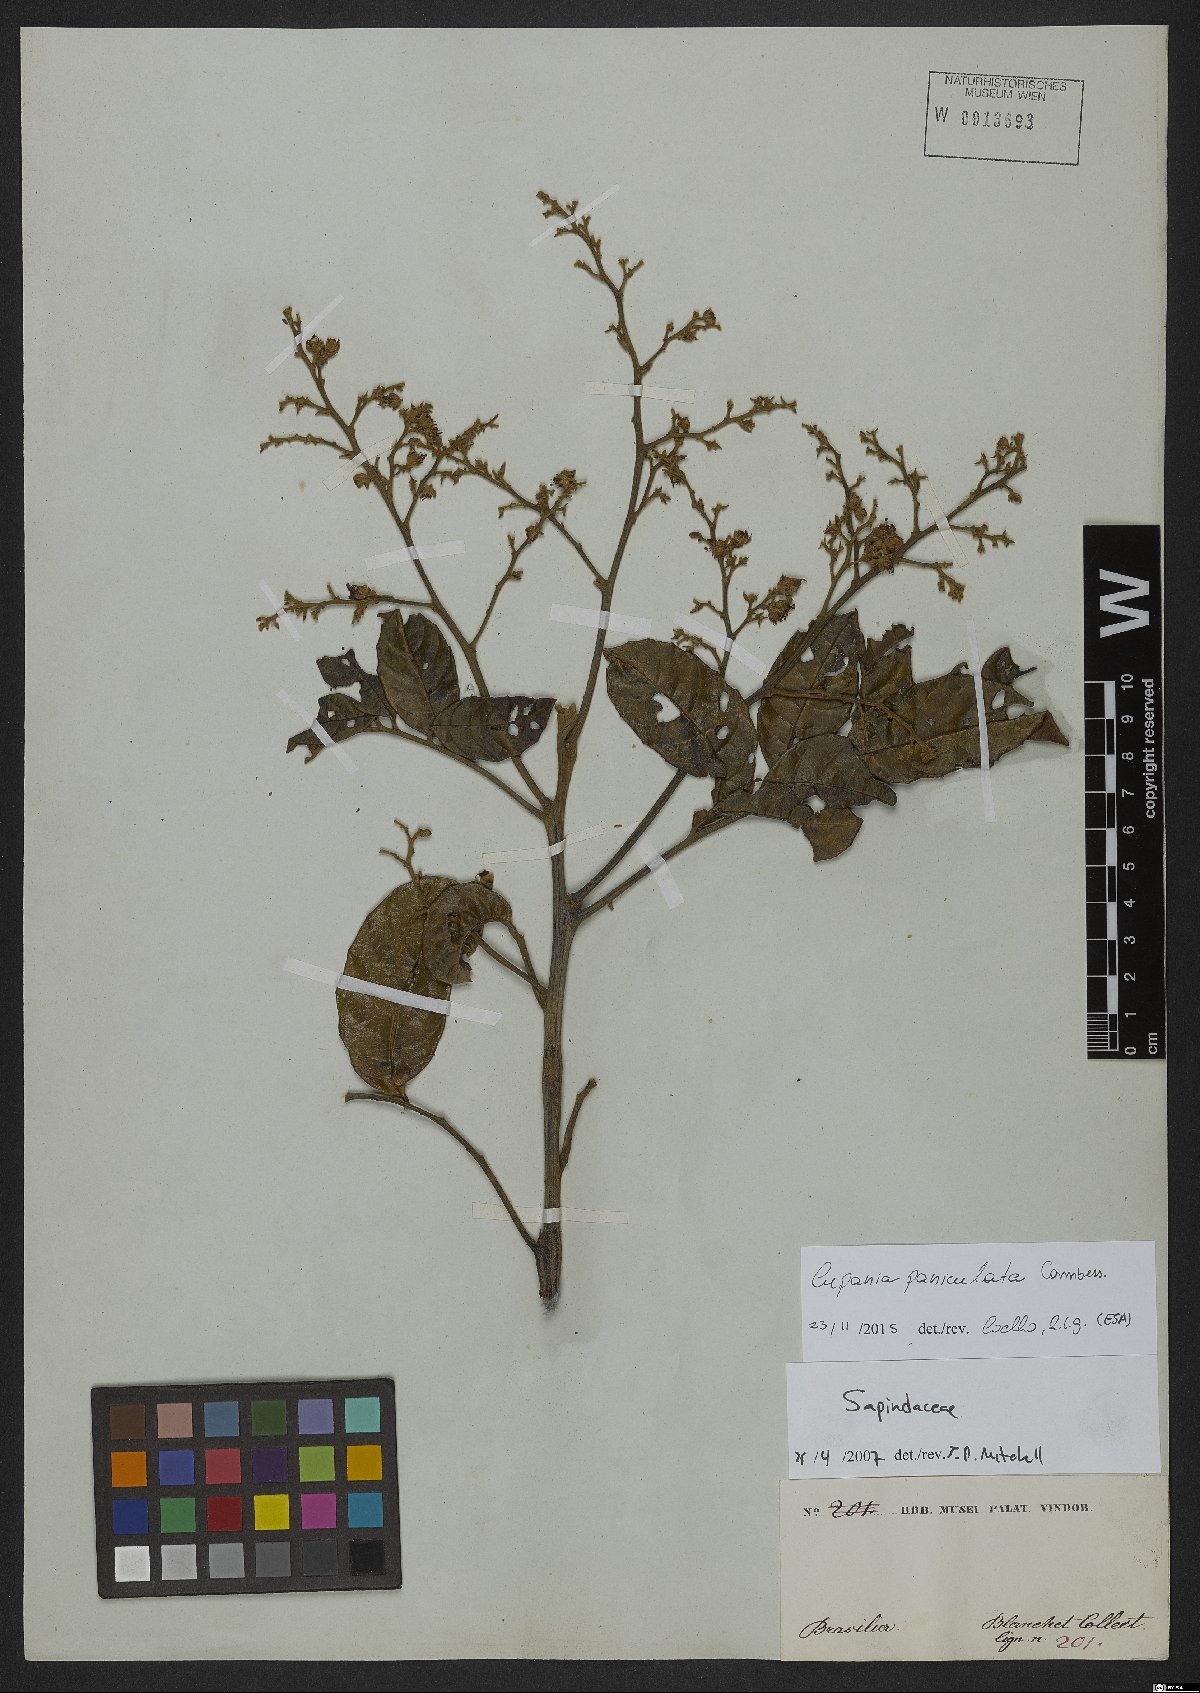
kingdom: Plantae
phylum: Tracheophyta
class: Magnoliopsida
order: Sapindales
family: Sapindaceae
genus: Cupania
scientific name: Cupania paniculata
